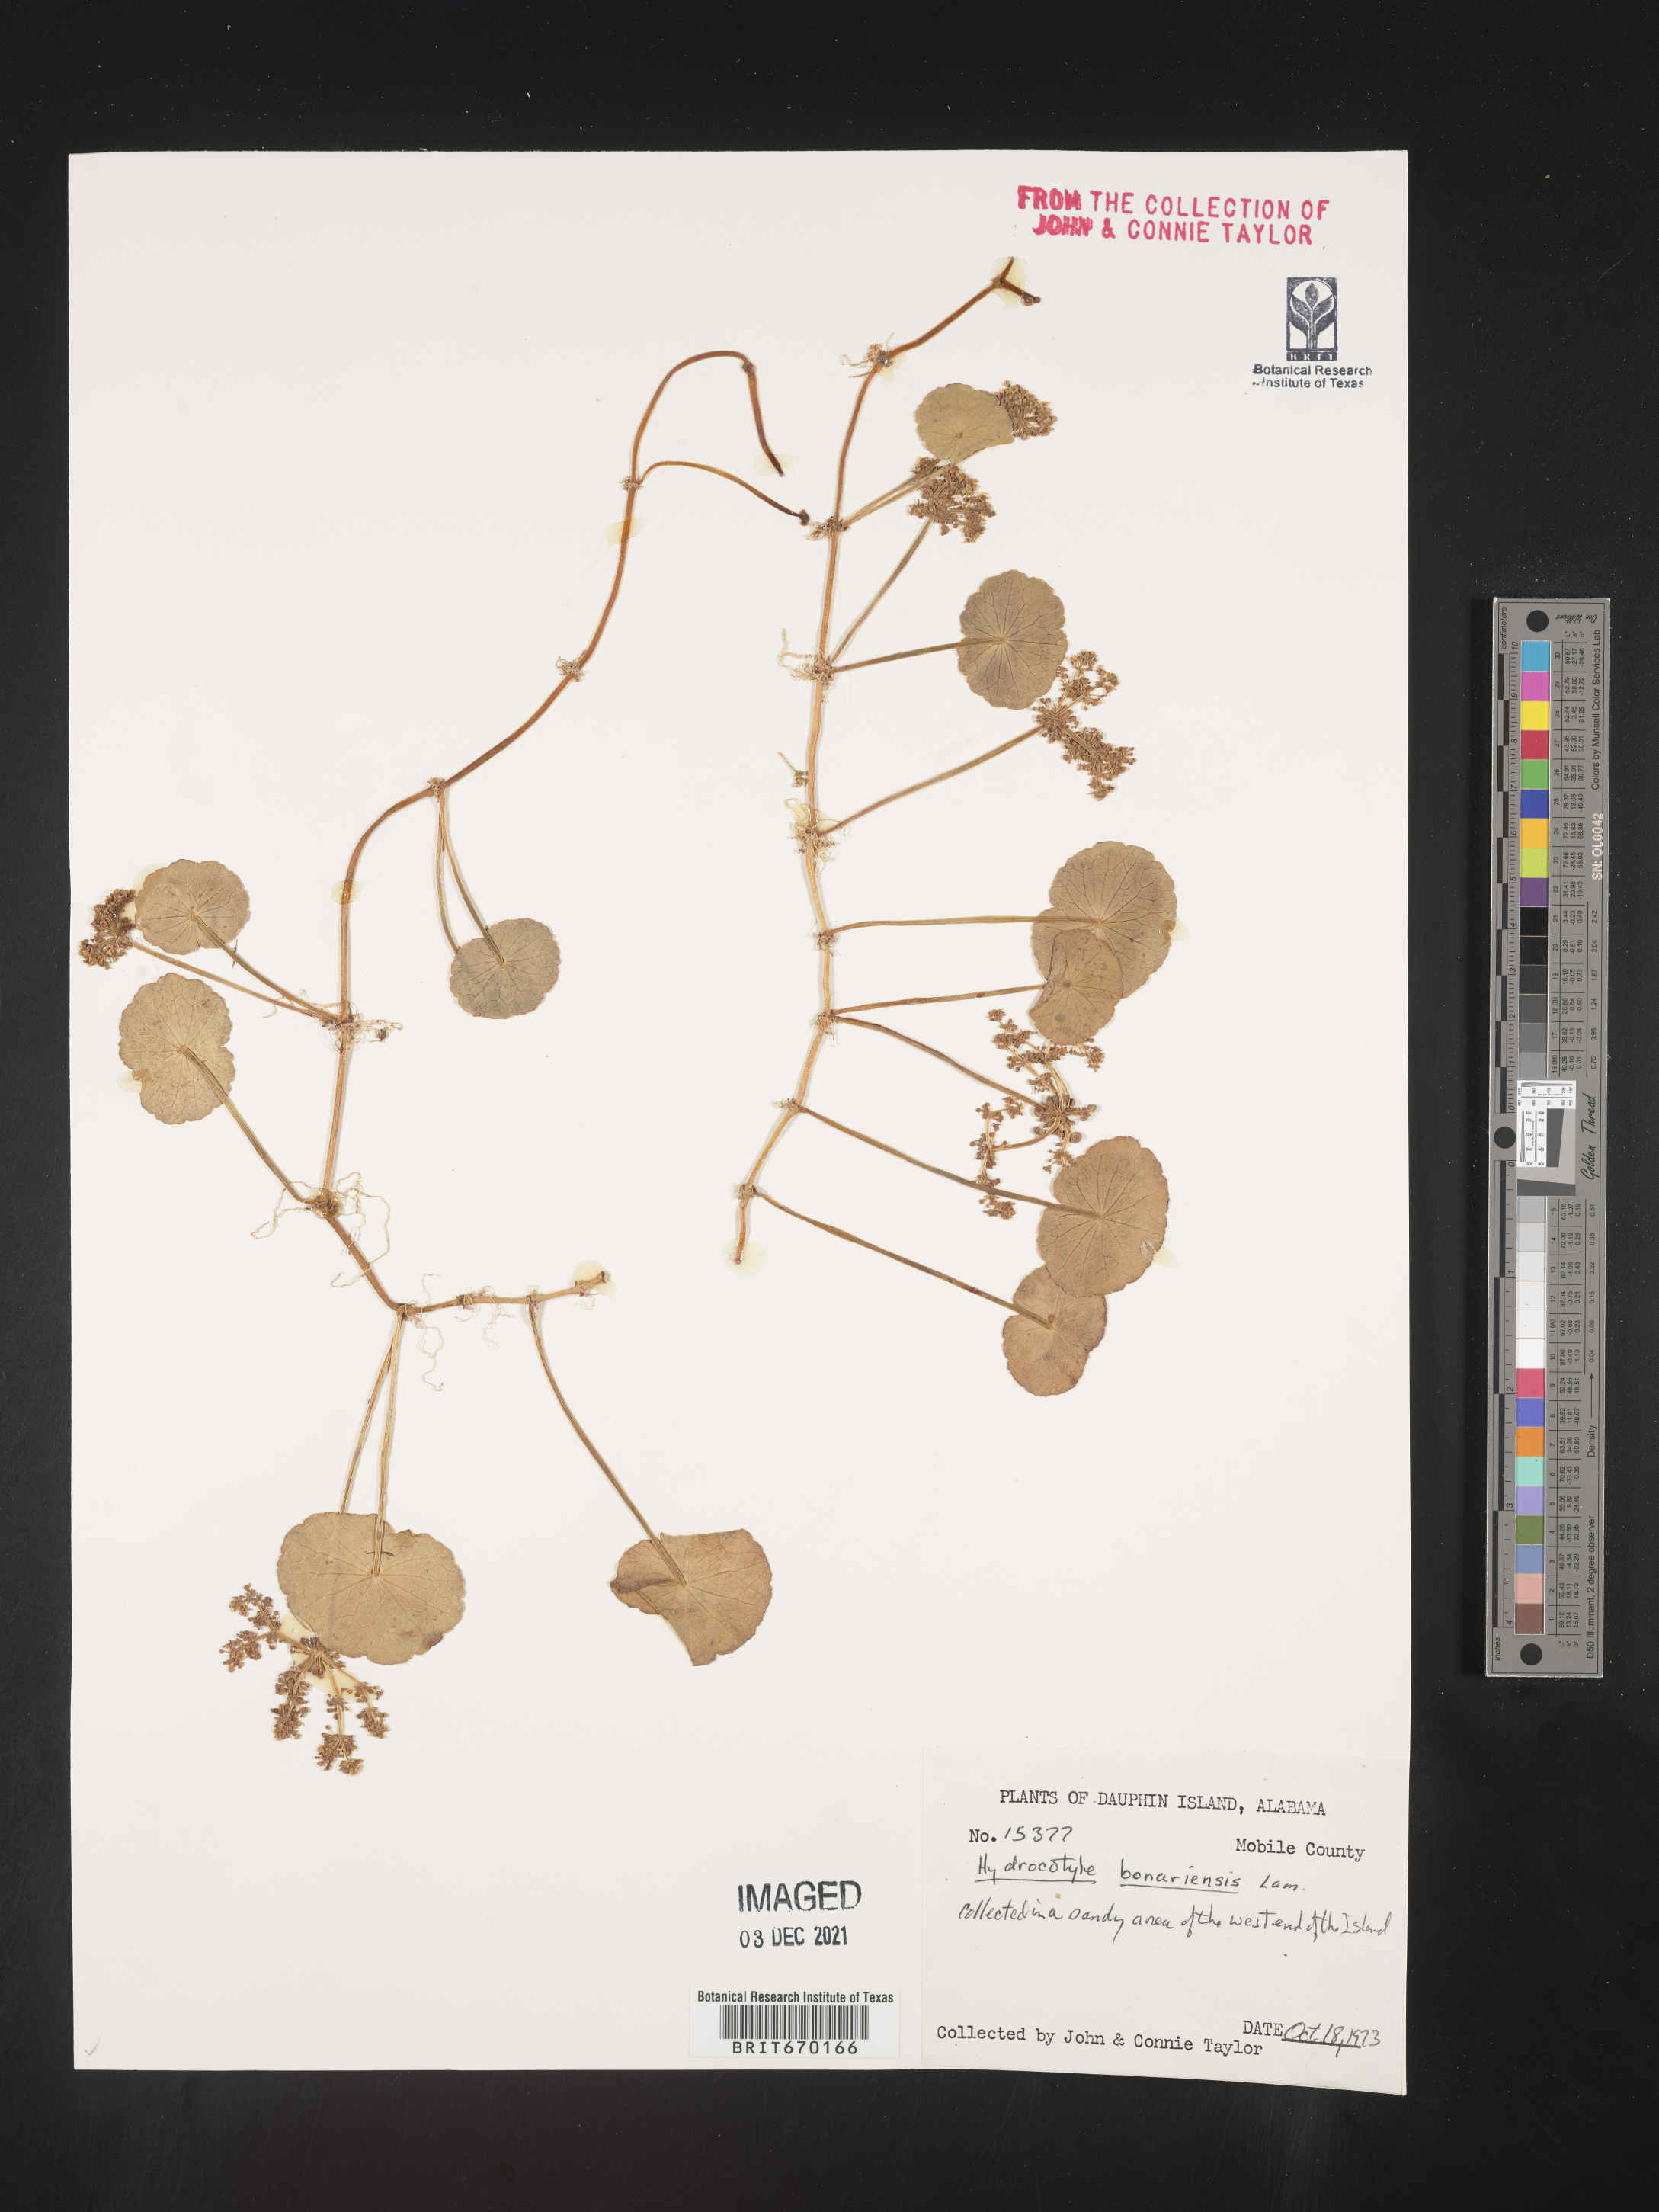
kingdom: Plantae
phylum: Tracheophyta
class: Magnoliopsida
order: Apiales
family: Araliaceae
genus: Hydrocotyle
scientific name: Hydrocotyle bonariensis
